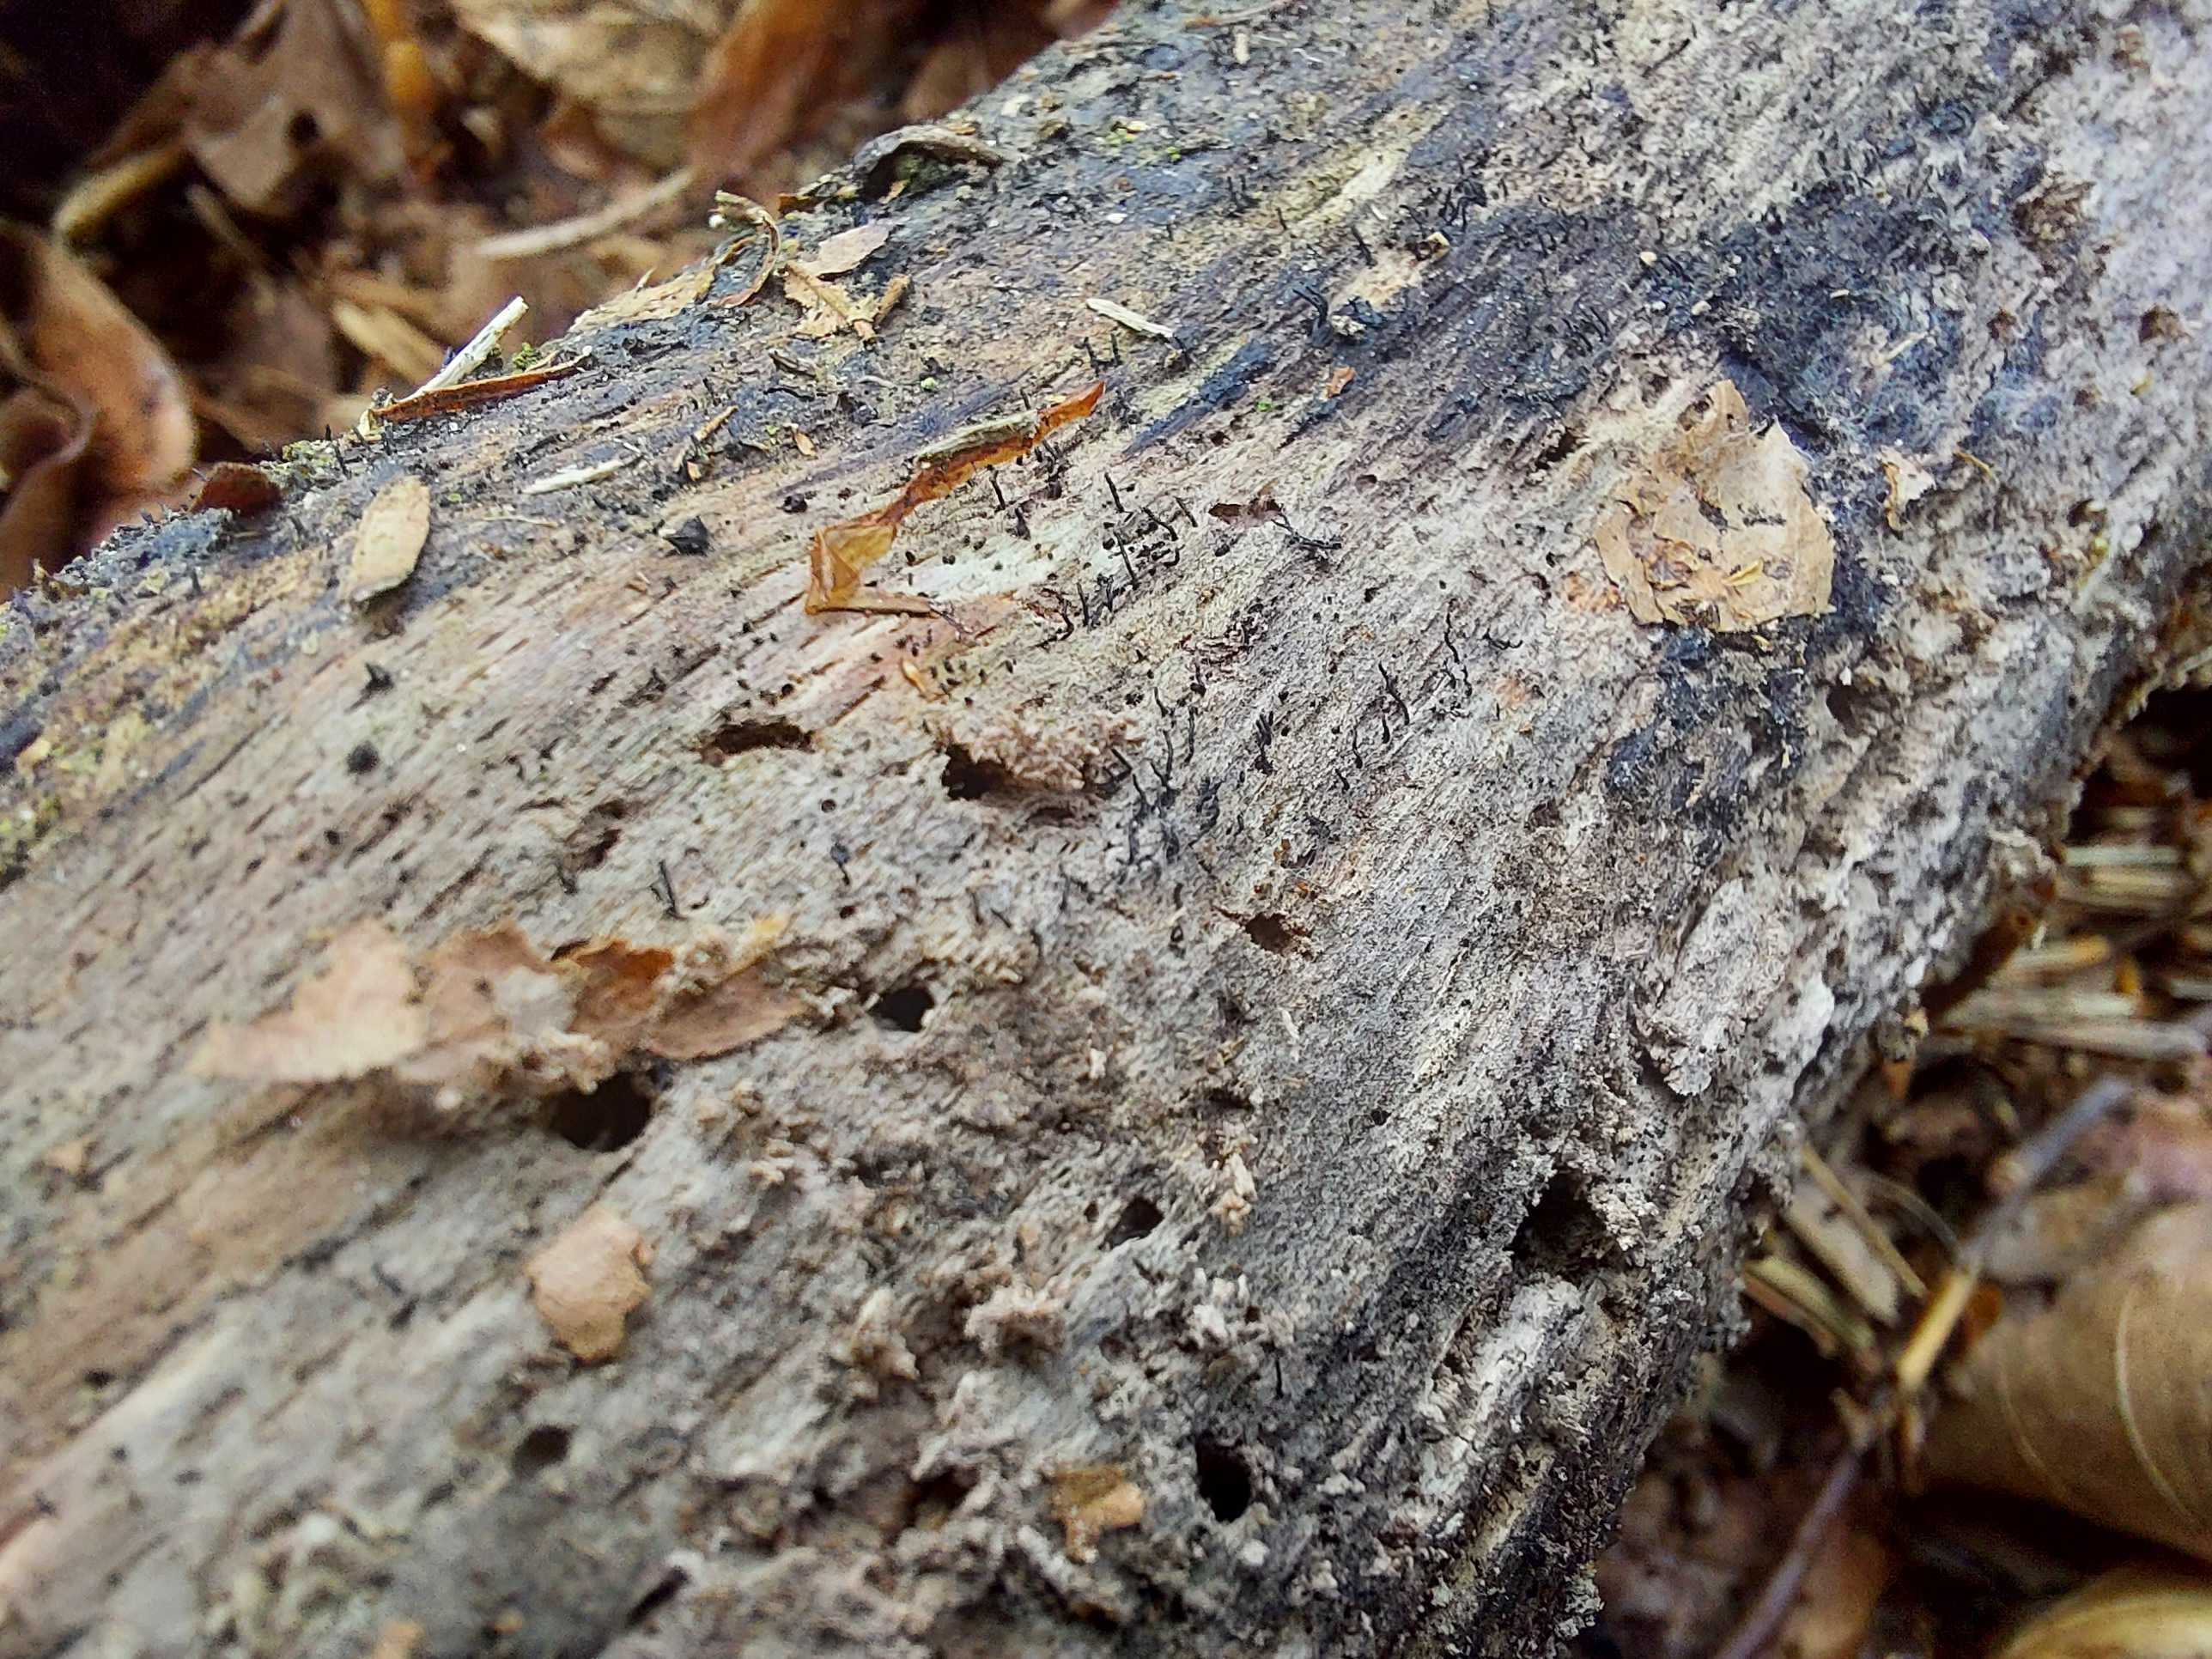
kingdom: Fungi
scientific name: Fungi
